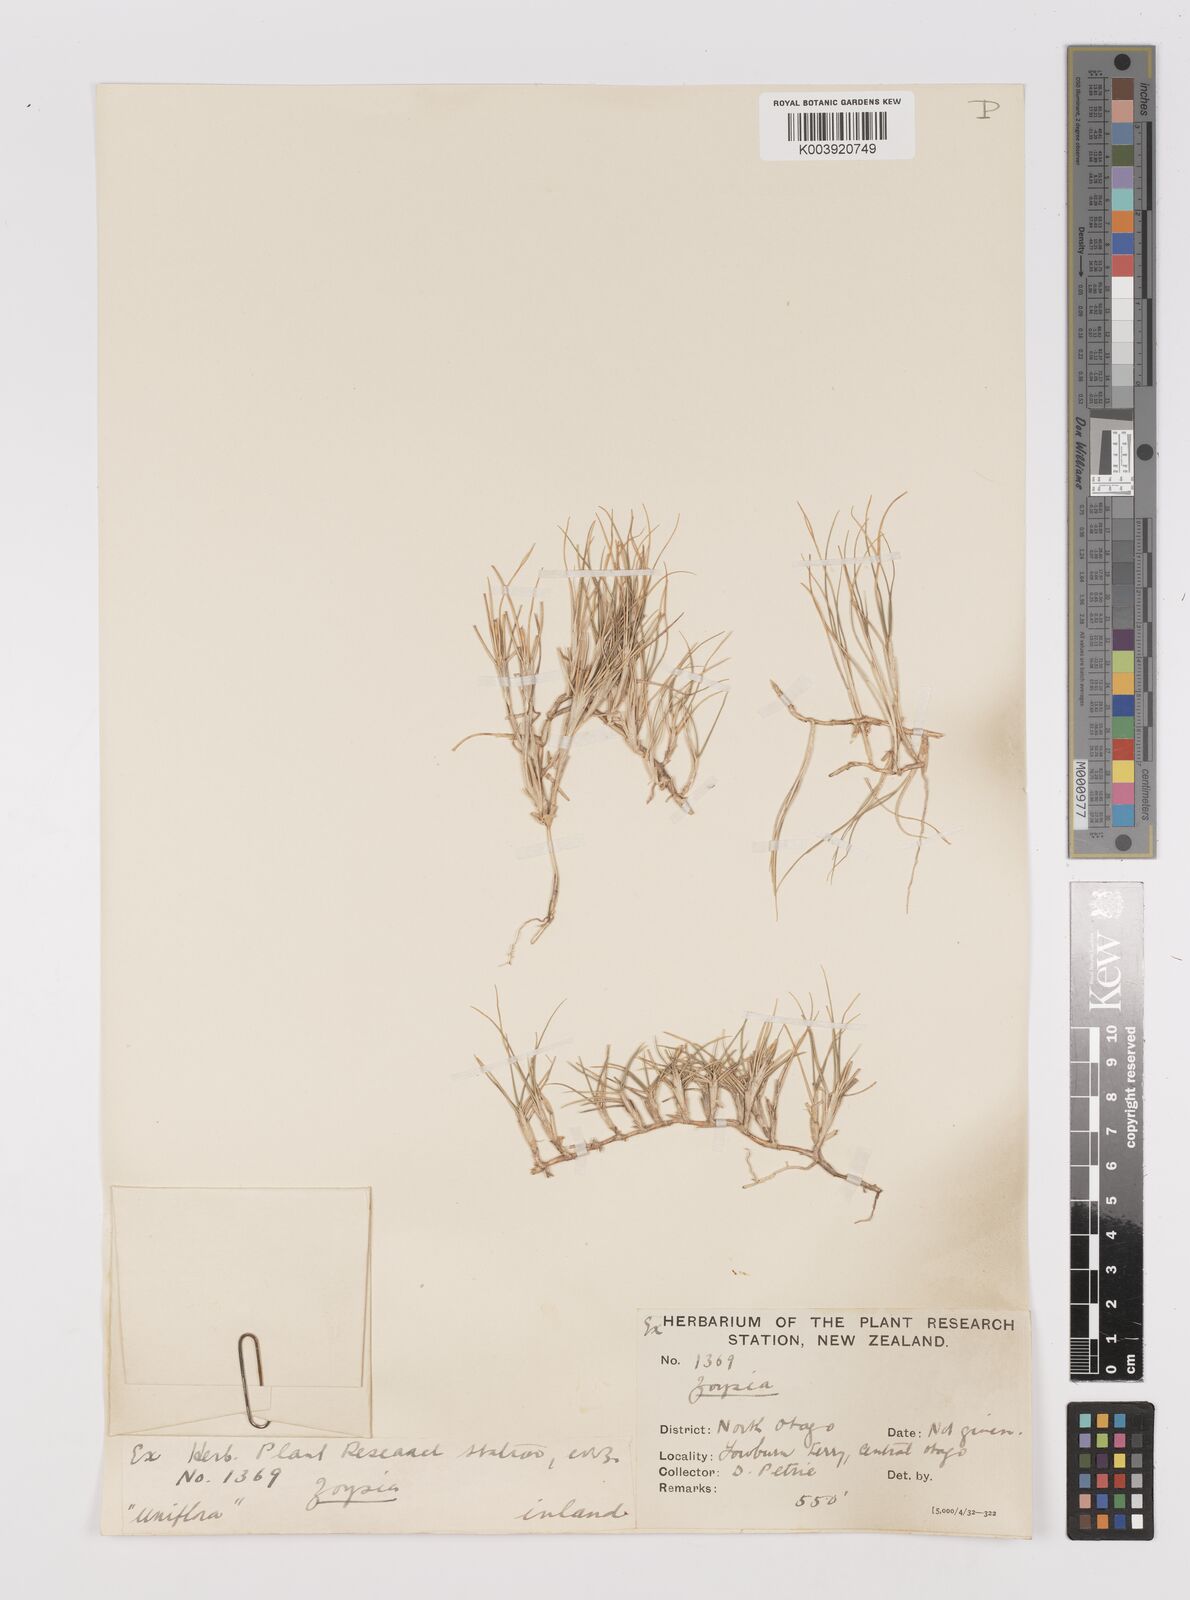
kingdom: Plantae
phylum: Tracheophyta
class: Liliopsida
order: Poales
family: Poaceae
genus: Zoysia
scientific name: Zoysia minima
